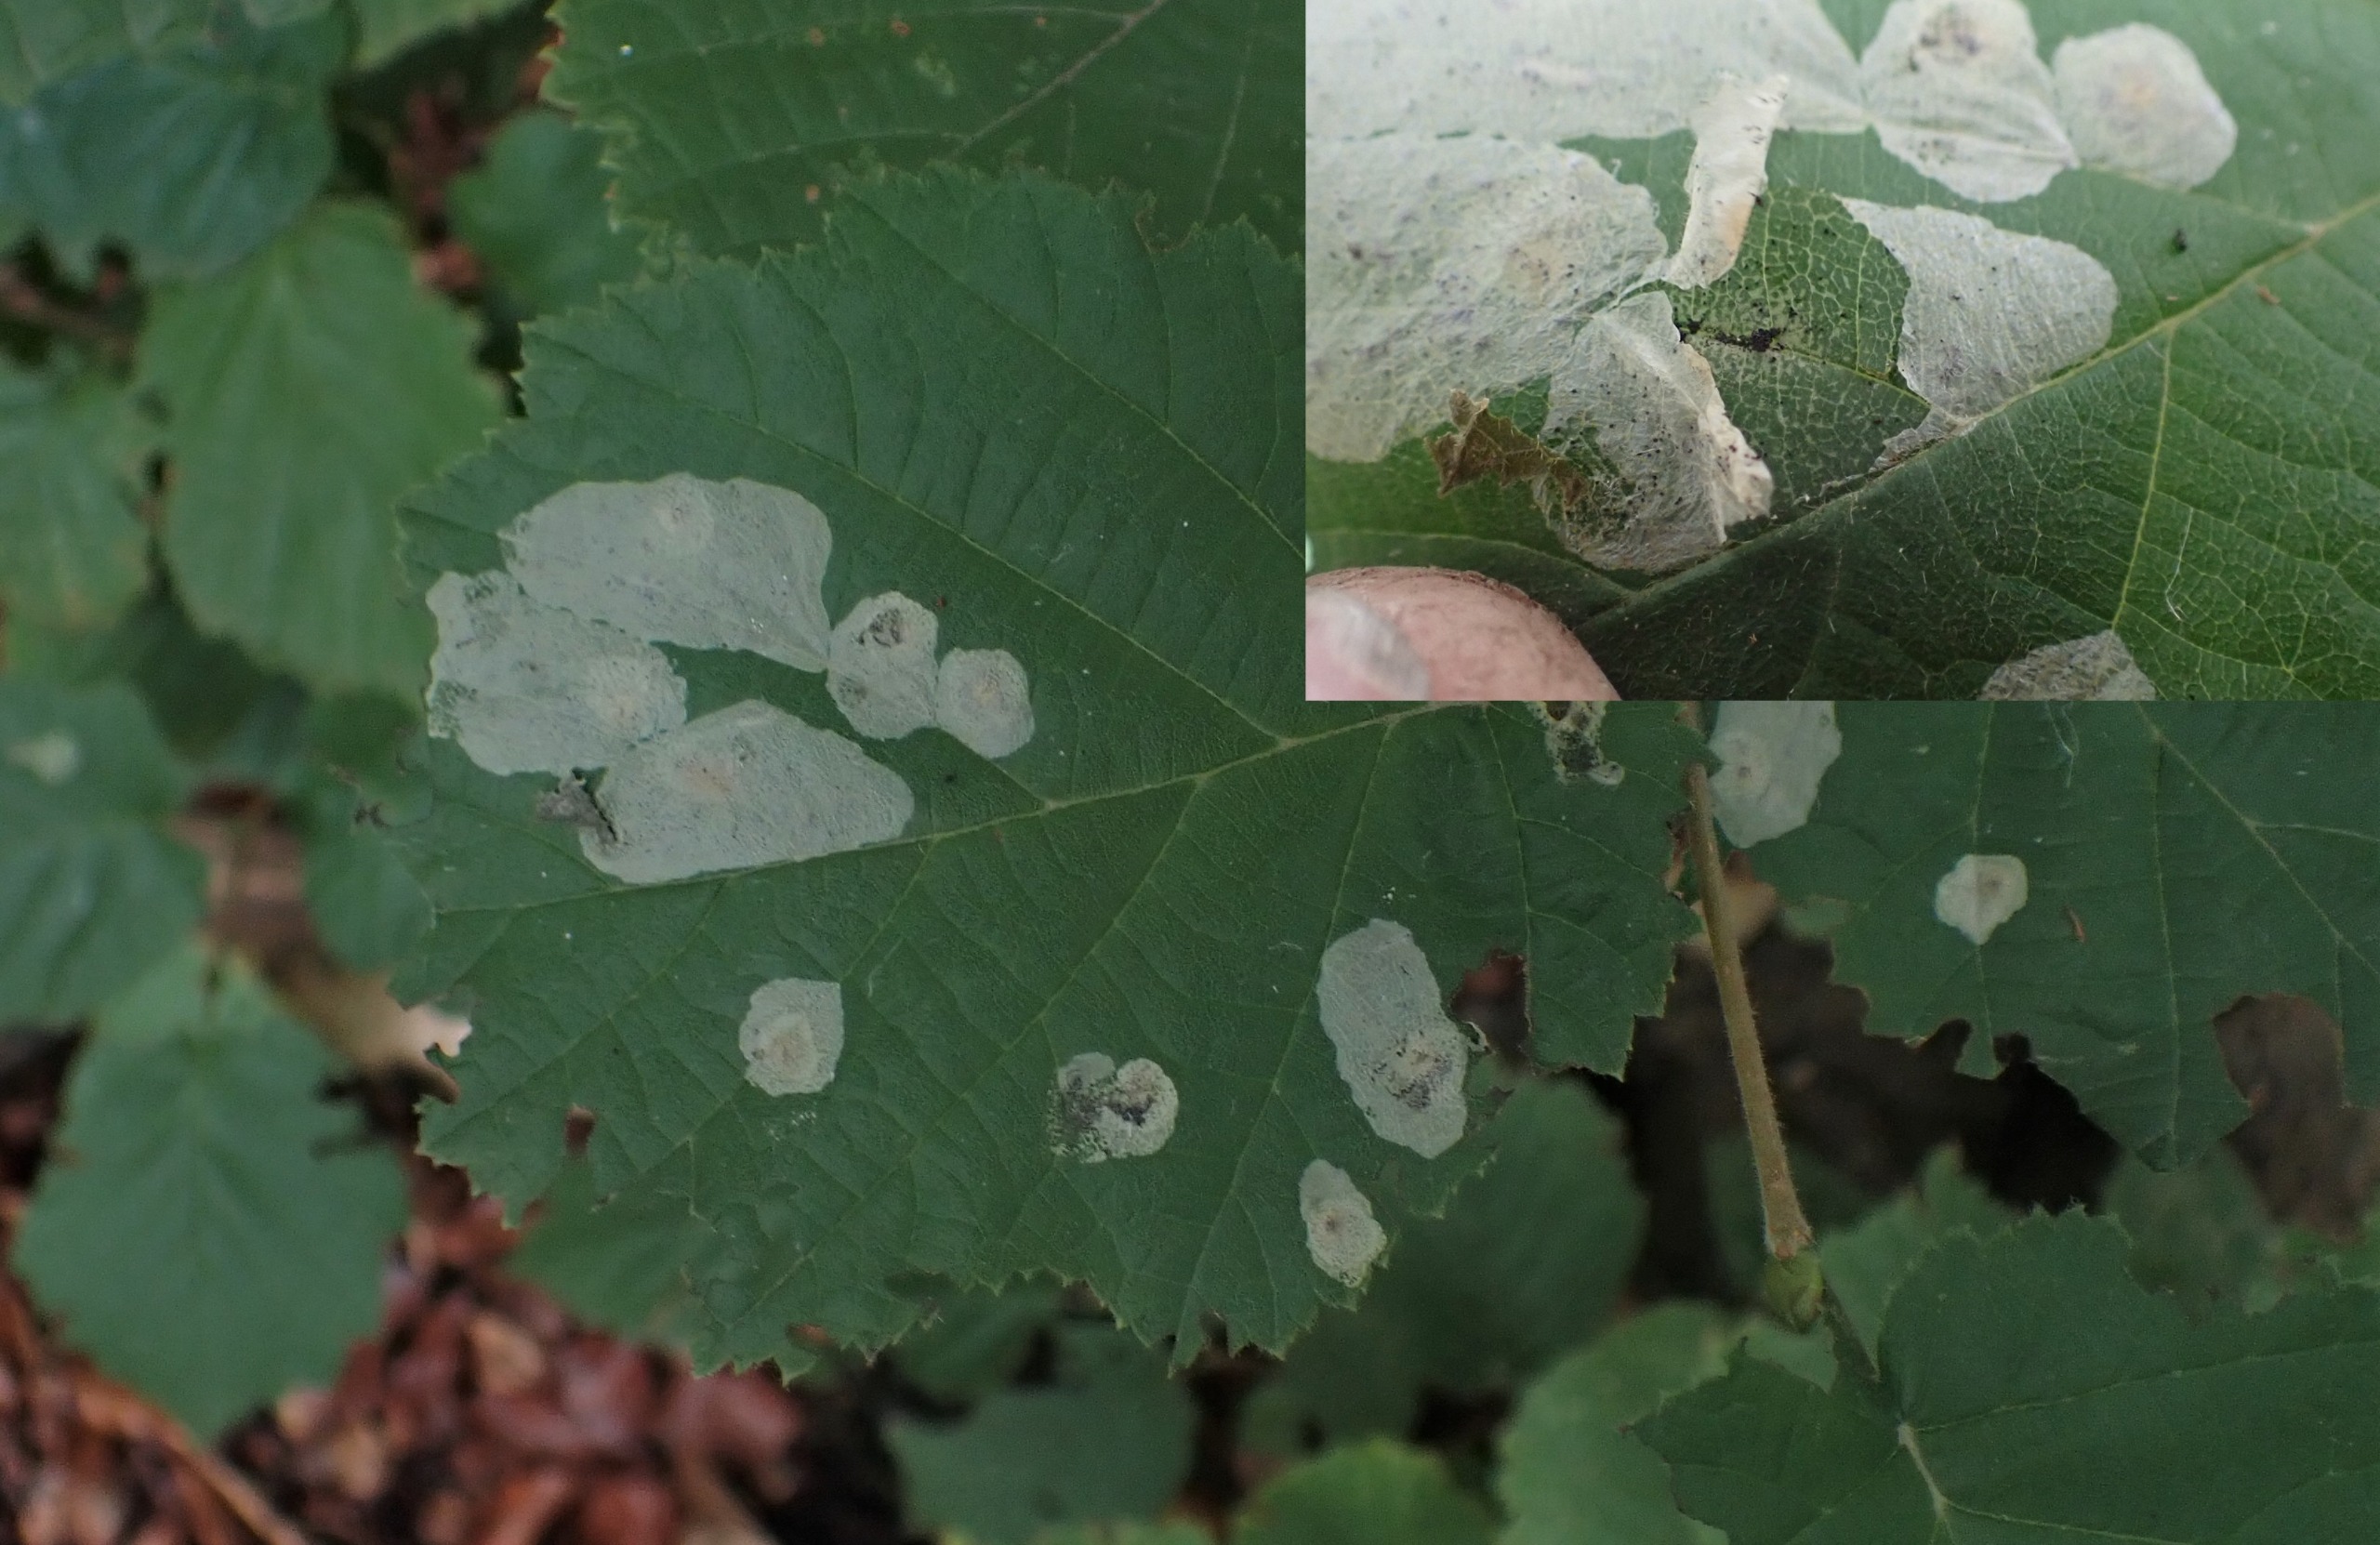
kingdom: Animalia
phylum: Arthropoda
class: Insecta
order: Lepidoptera
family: Gracillariidae
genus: Phyllonorycter
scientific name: Phyllonorycter coryli
